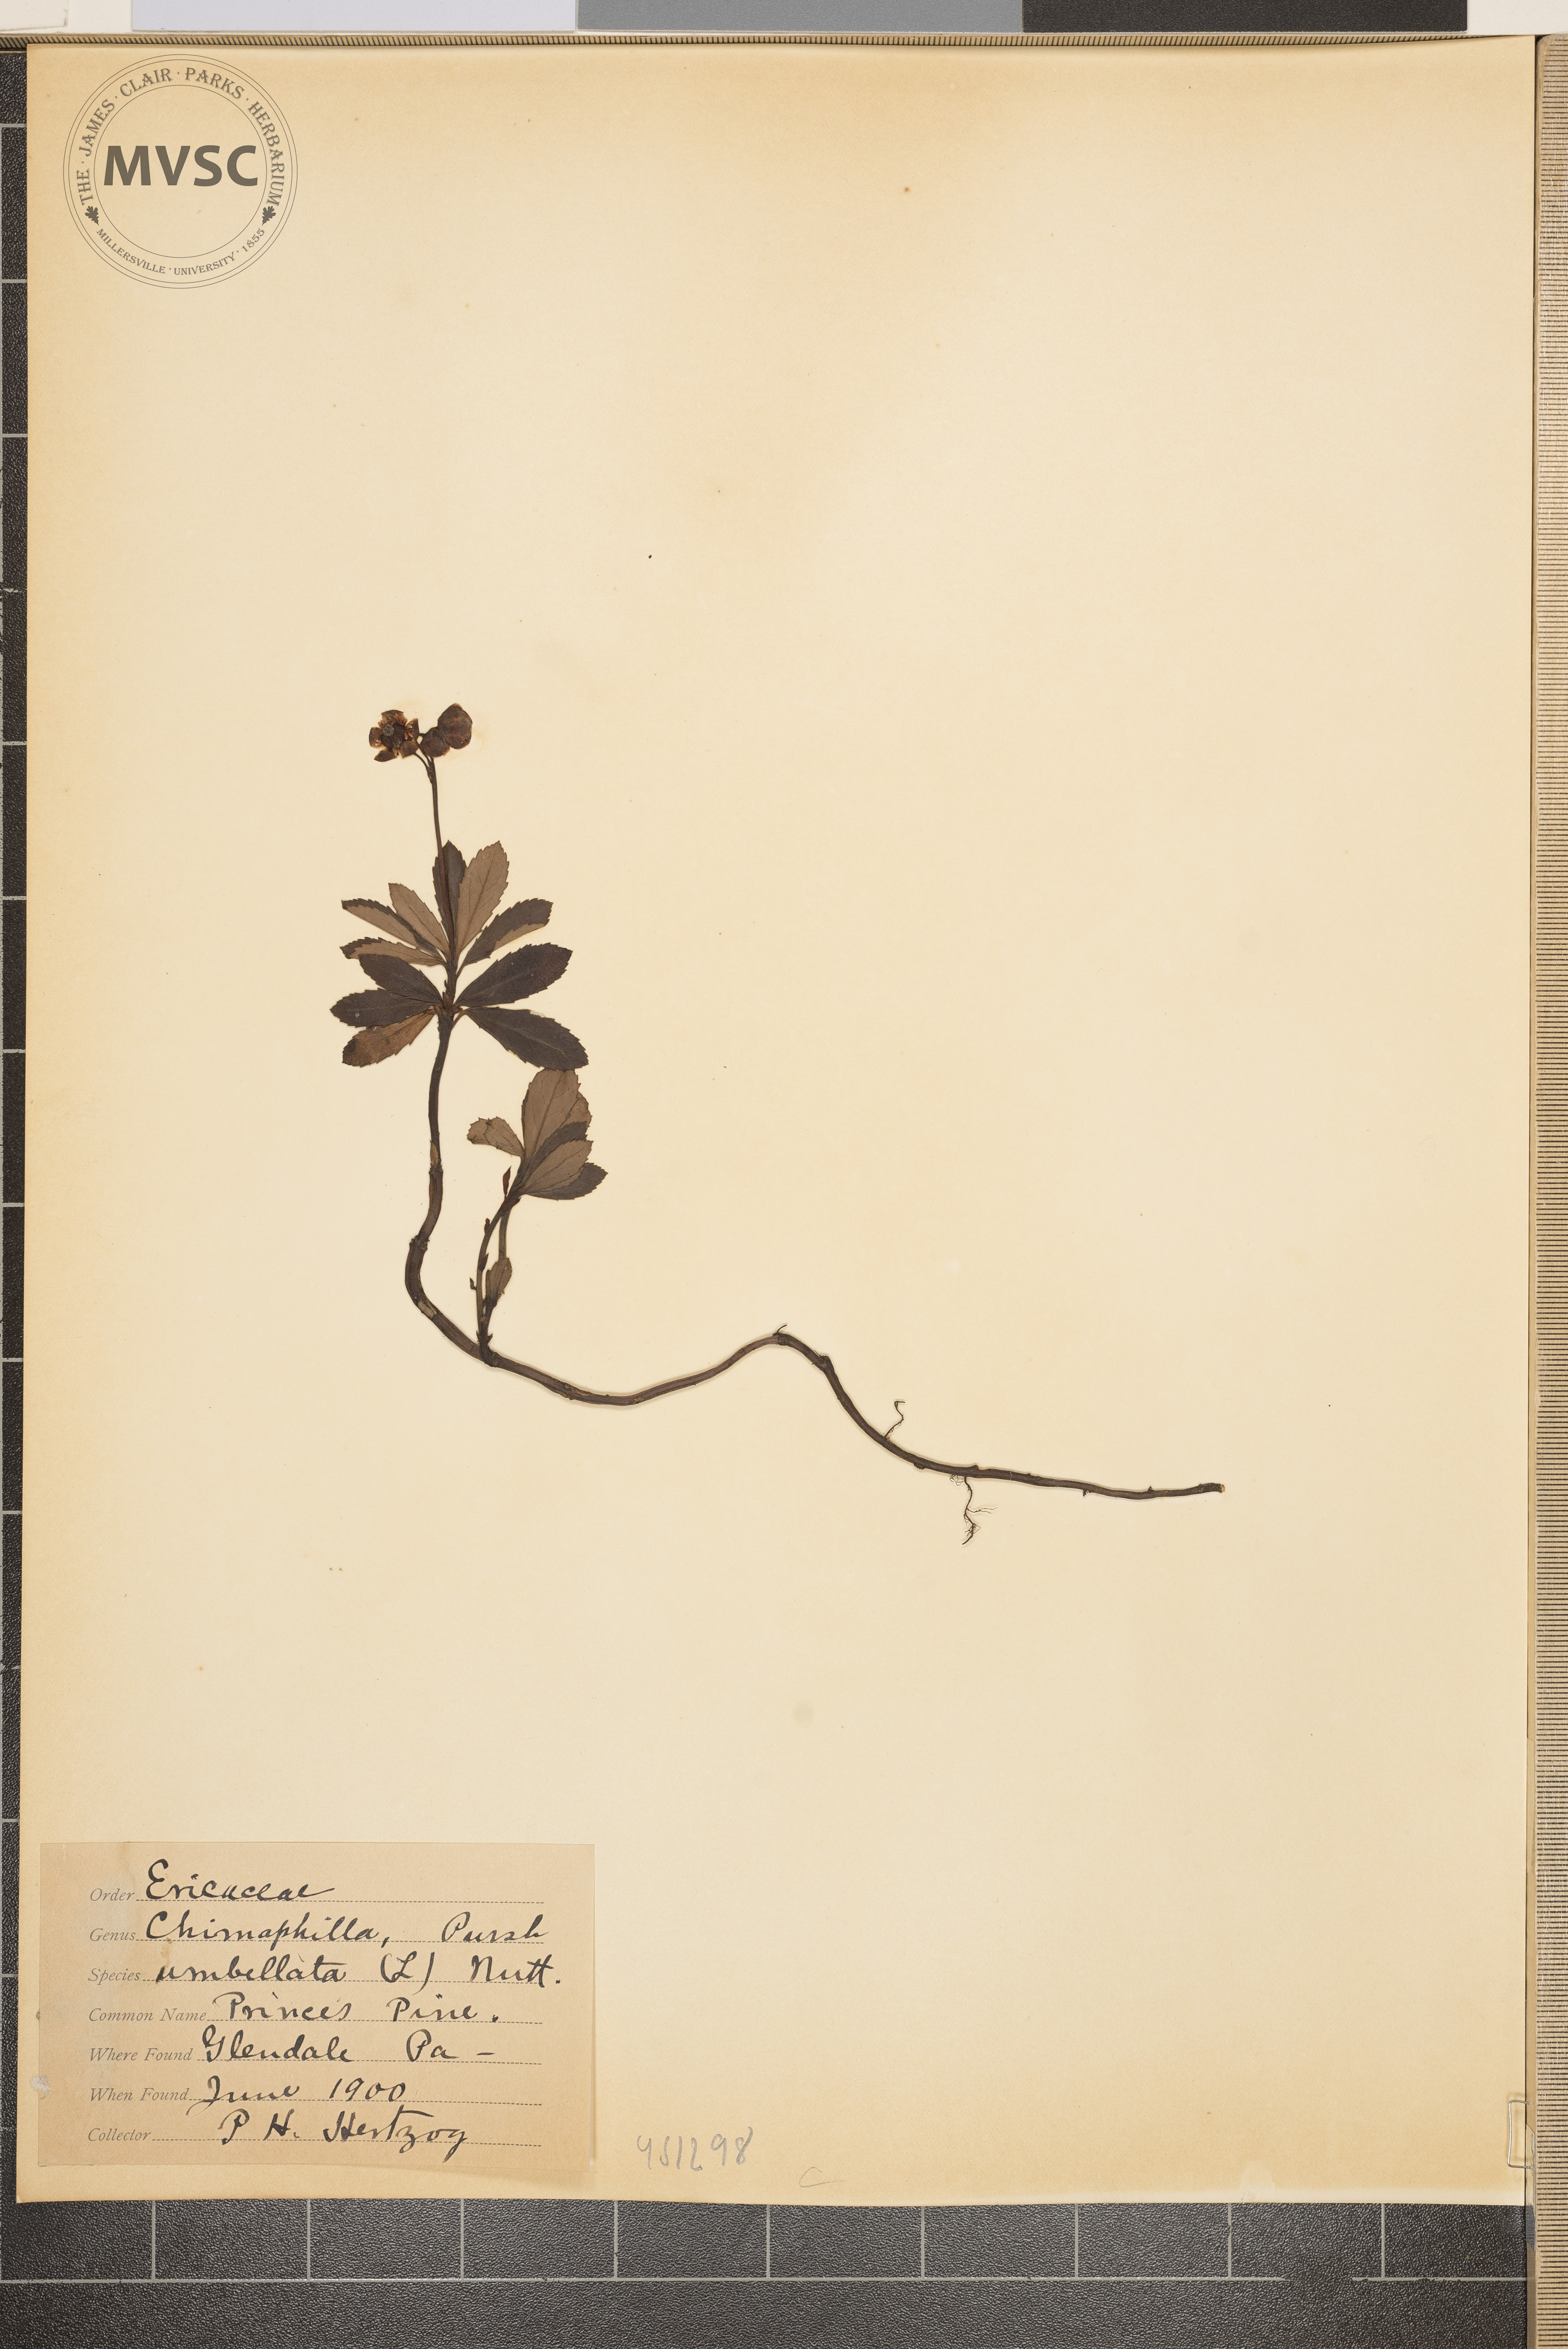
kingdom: Plantae
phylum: Tracheophyta
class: Magnoliopsida
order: Ericales
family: Ericaceae
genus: Chimaphila
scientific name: Chimaphila umbellata
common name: Pipsissewa
